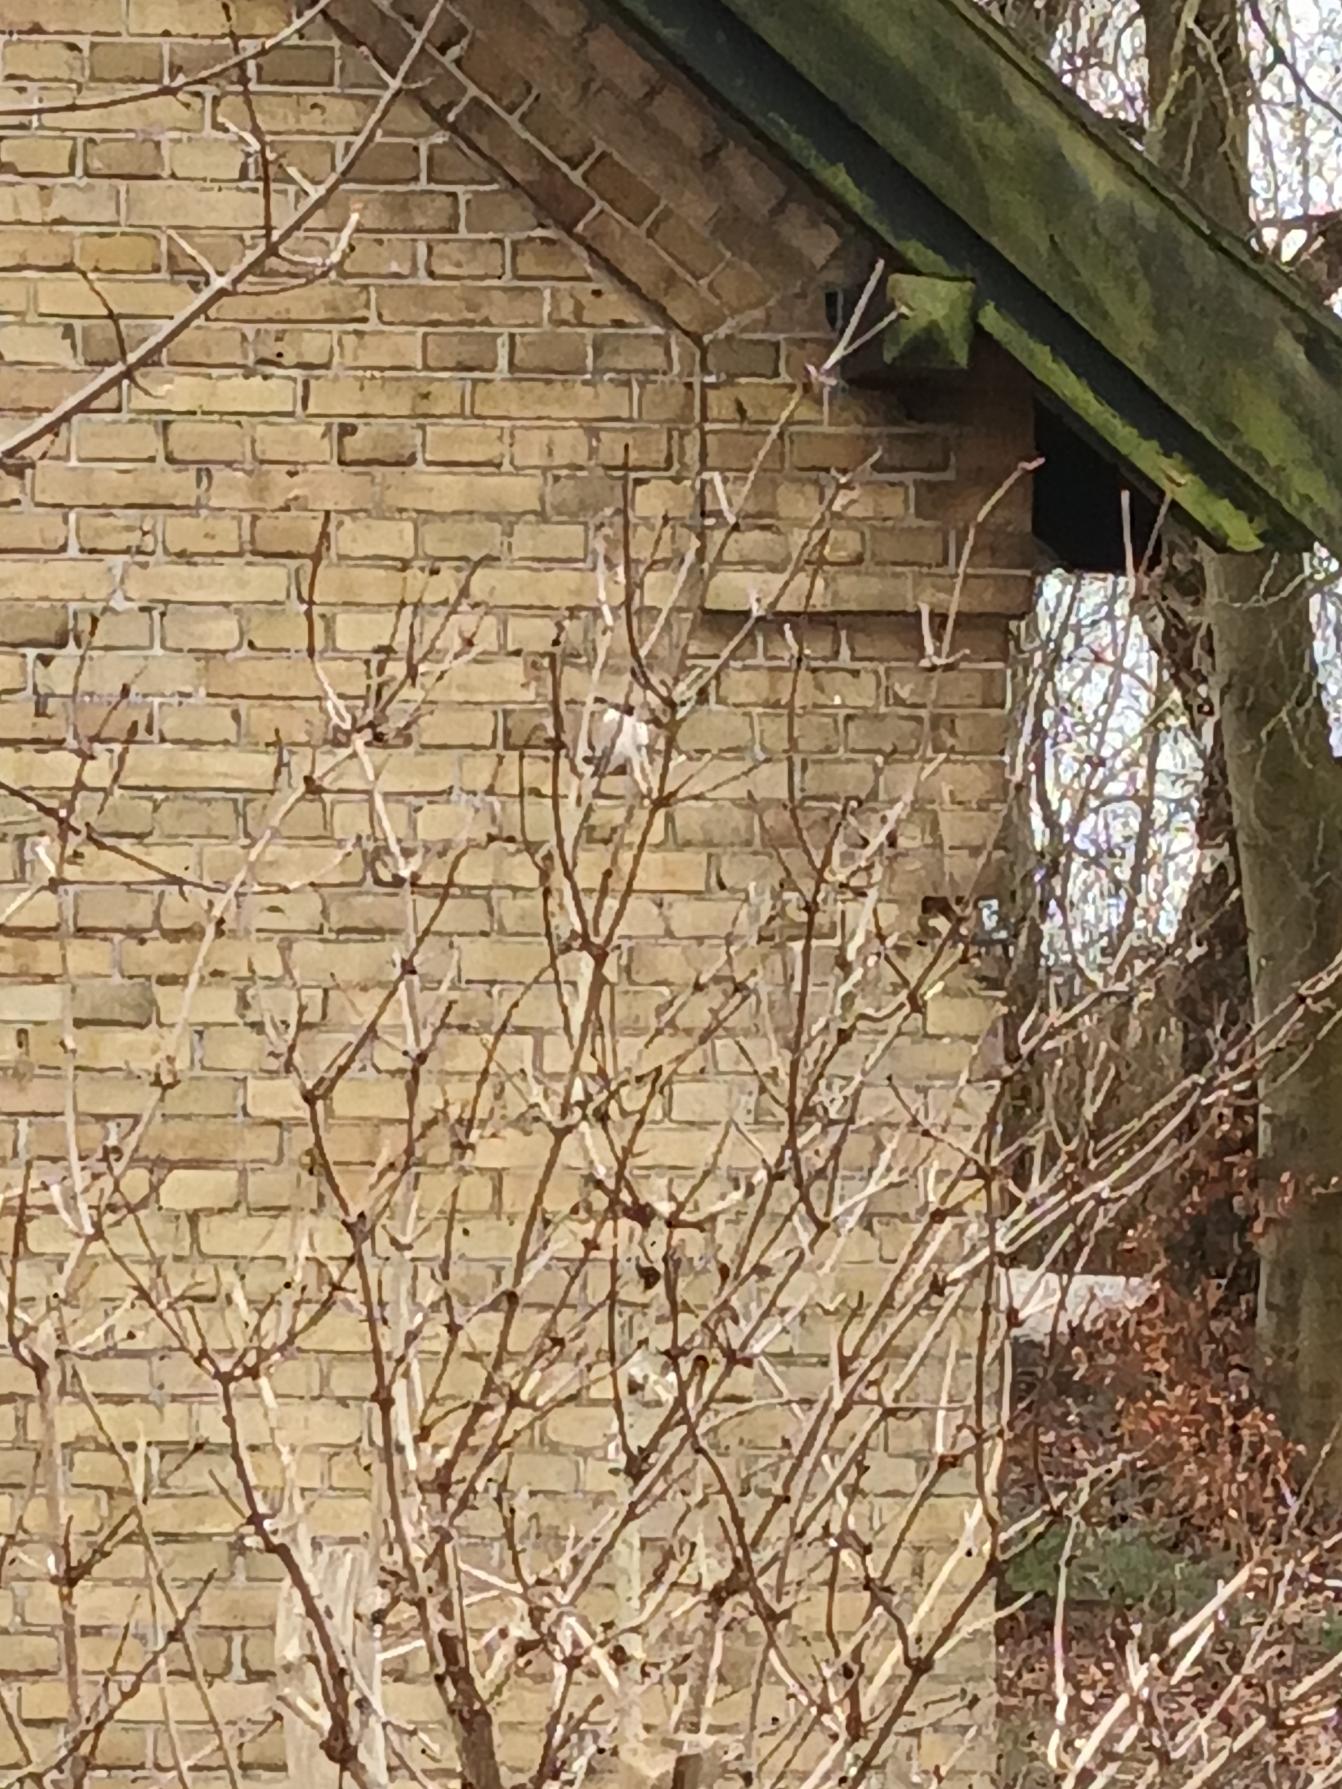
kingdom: Animalia
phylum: Chordata
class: Aves
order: Passeriformes
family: Paridae
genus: Poecile
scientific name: Poecile palustris
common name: Sumpmejse
